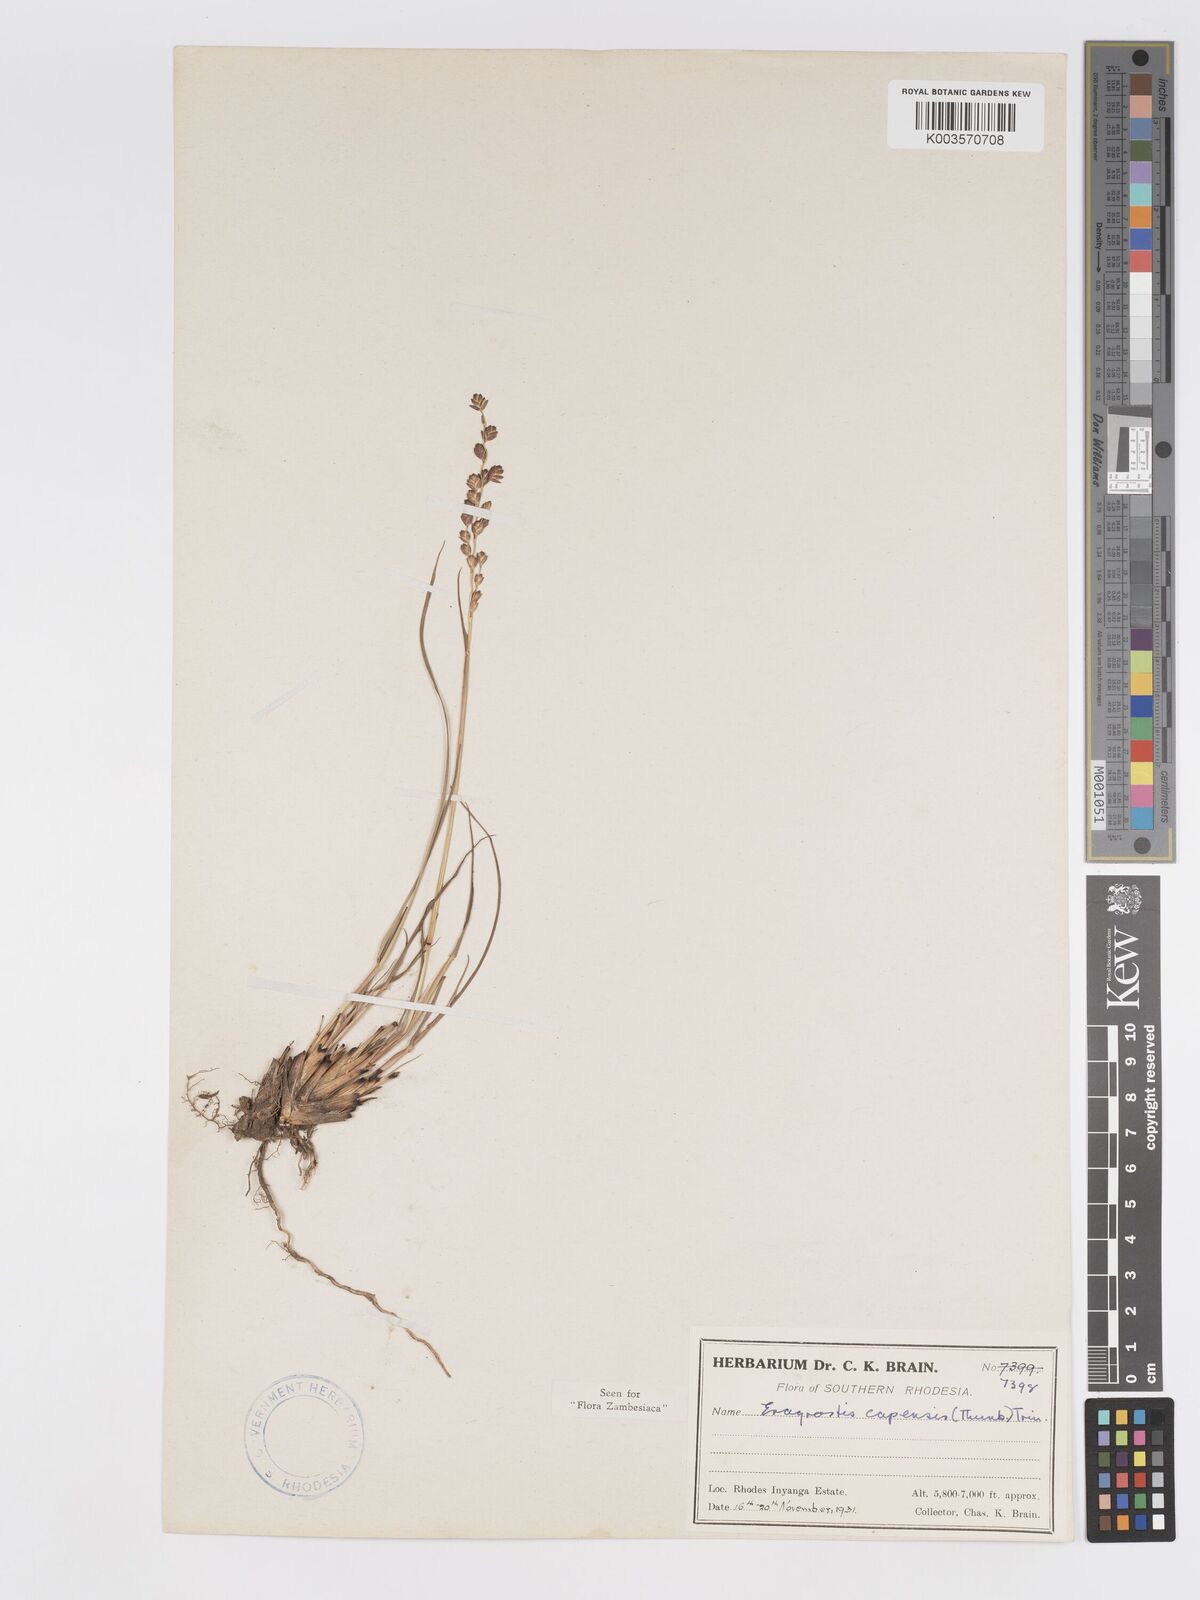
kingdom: Plantae
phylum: Tracheophyta
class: Liliopsida
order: Poales
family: Poaceae
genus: Eragrostis
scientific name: Eragrostis capensis
